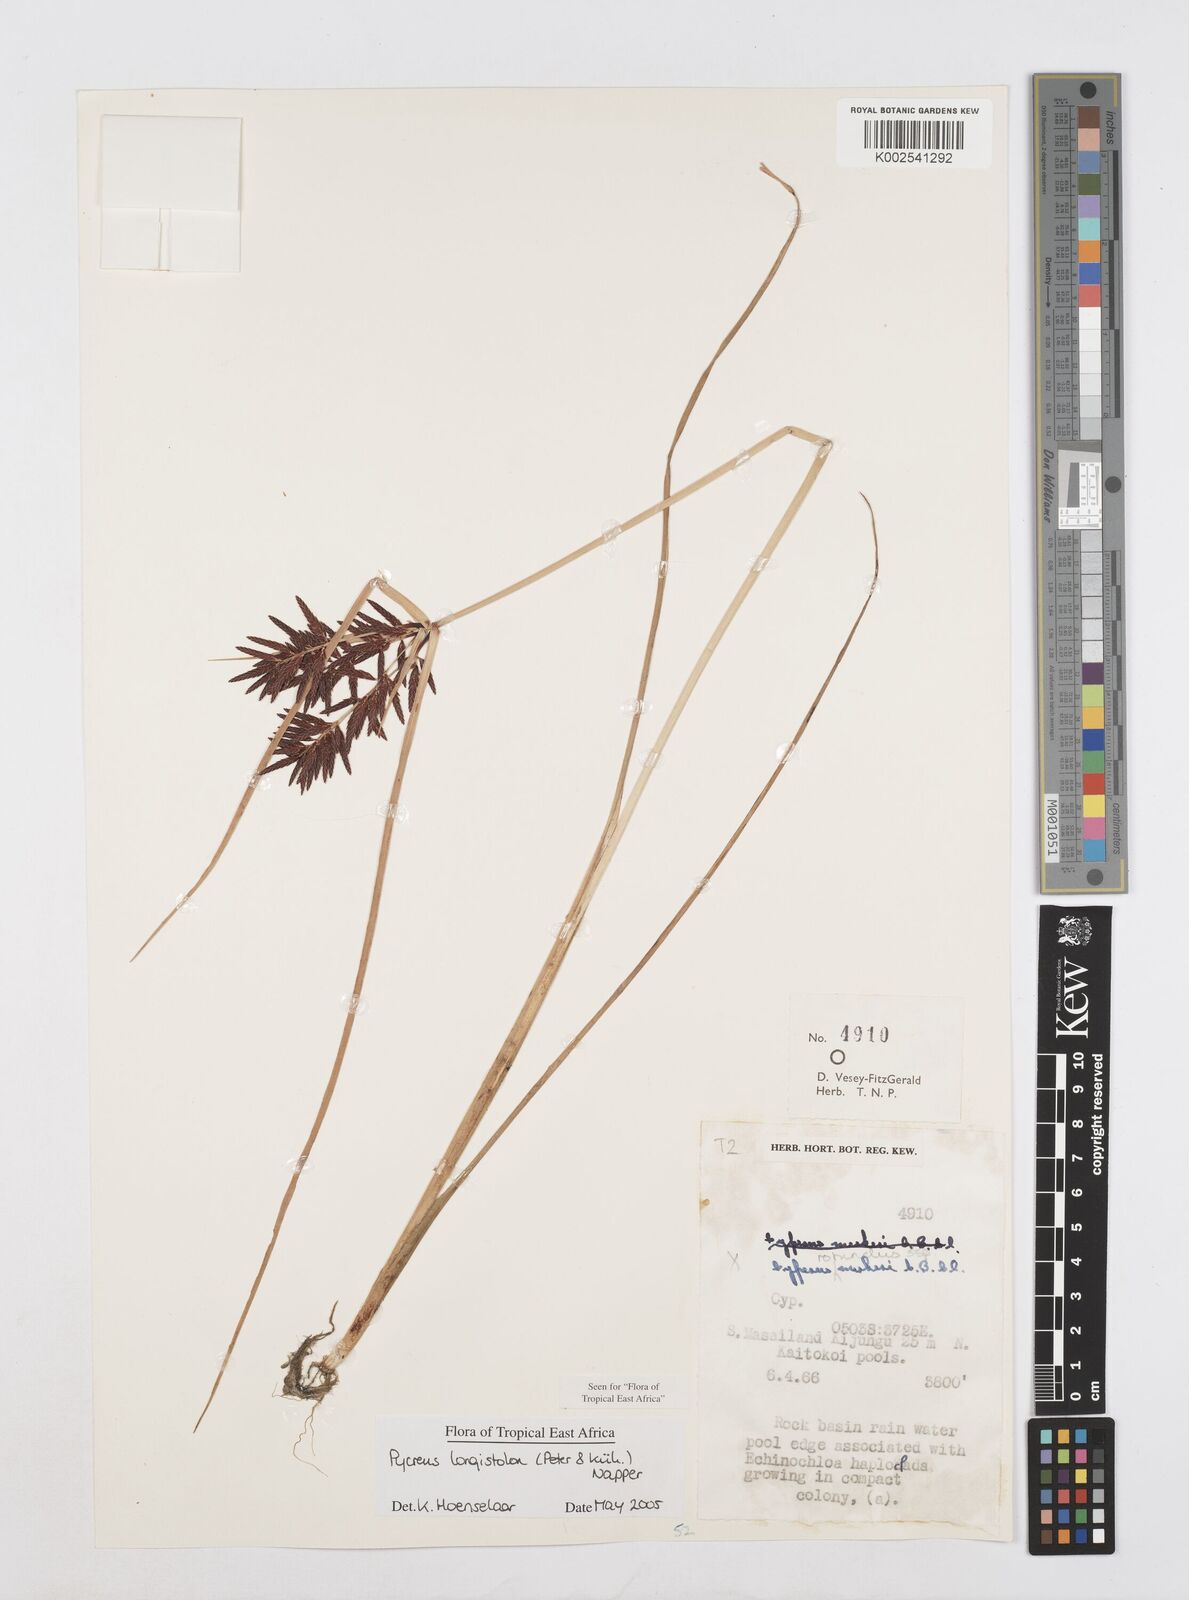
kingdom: Plantae
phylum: Tracheophyta
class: Liliopsida
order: Poales
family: Cyperaceae
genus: Cyperus
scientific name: Cyperus chrysanthus
